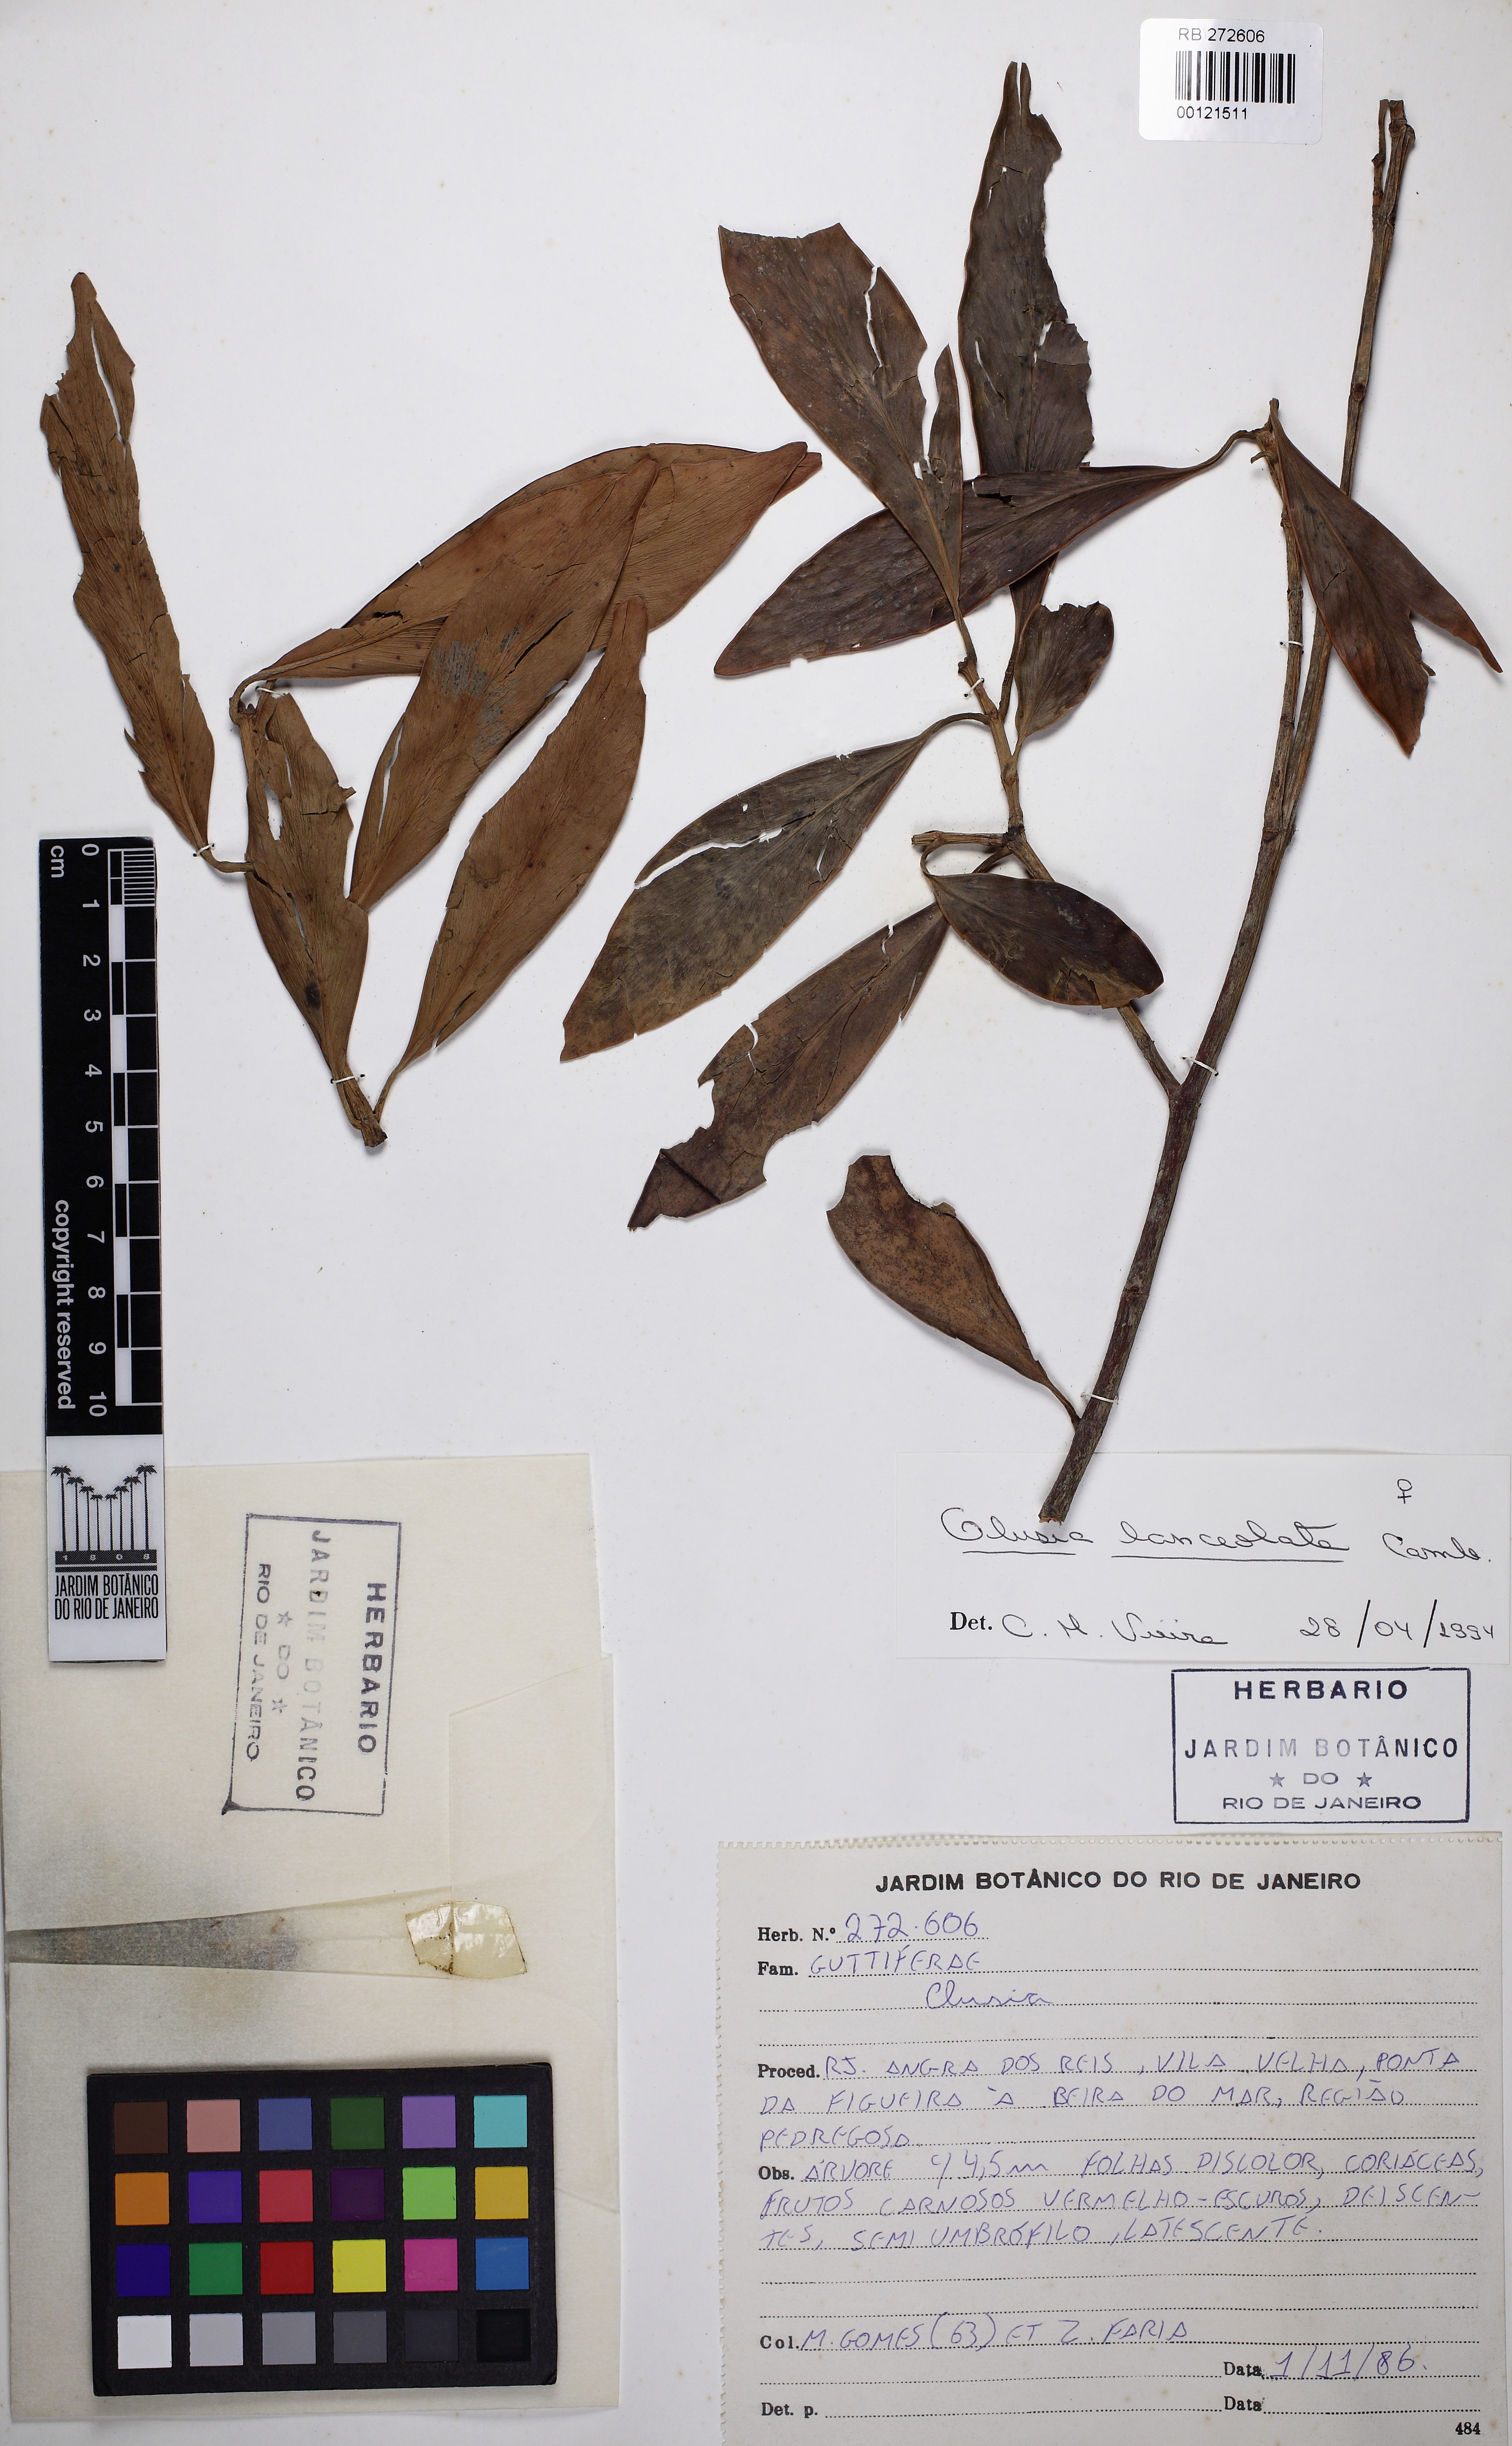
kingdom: Plantae
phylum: Tracheophyta
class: Magnoliopsida
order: Malpighiales
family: Clusiaceae
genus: Clusia
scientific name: Clusia lanceolata
